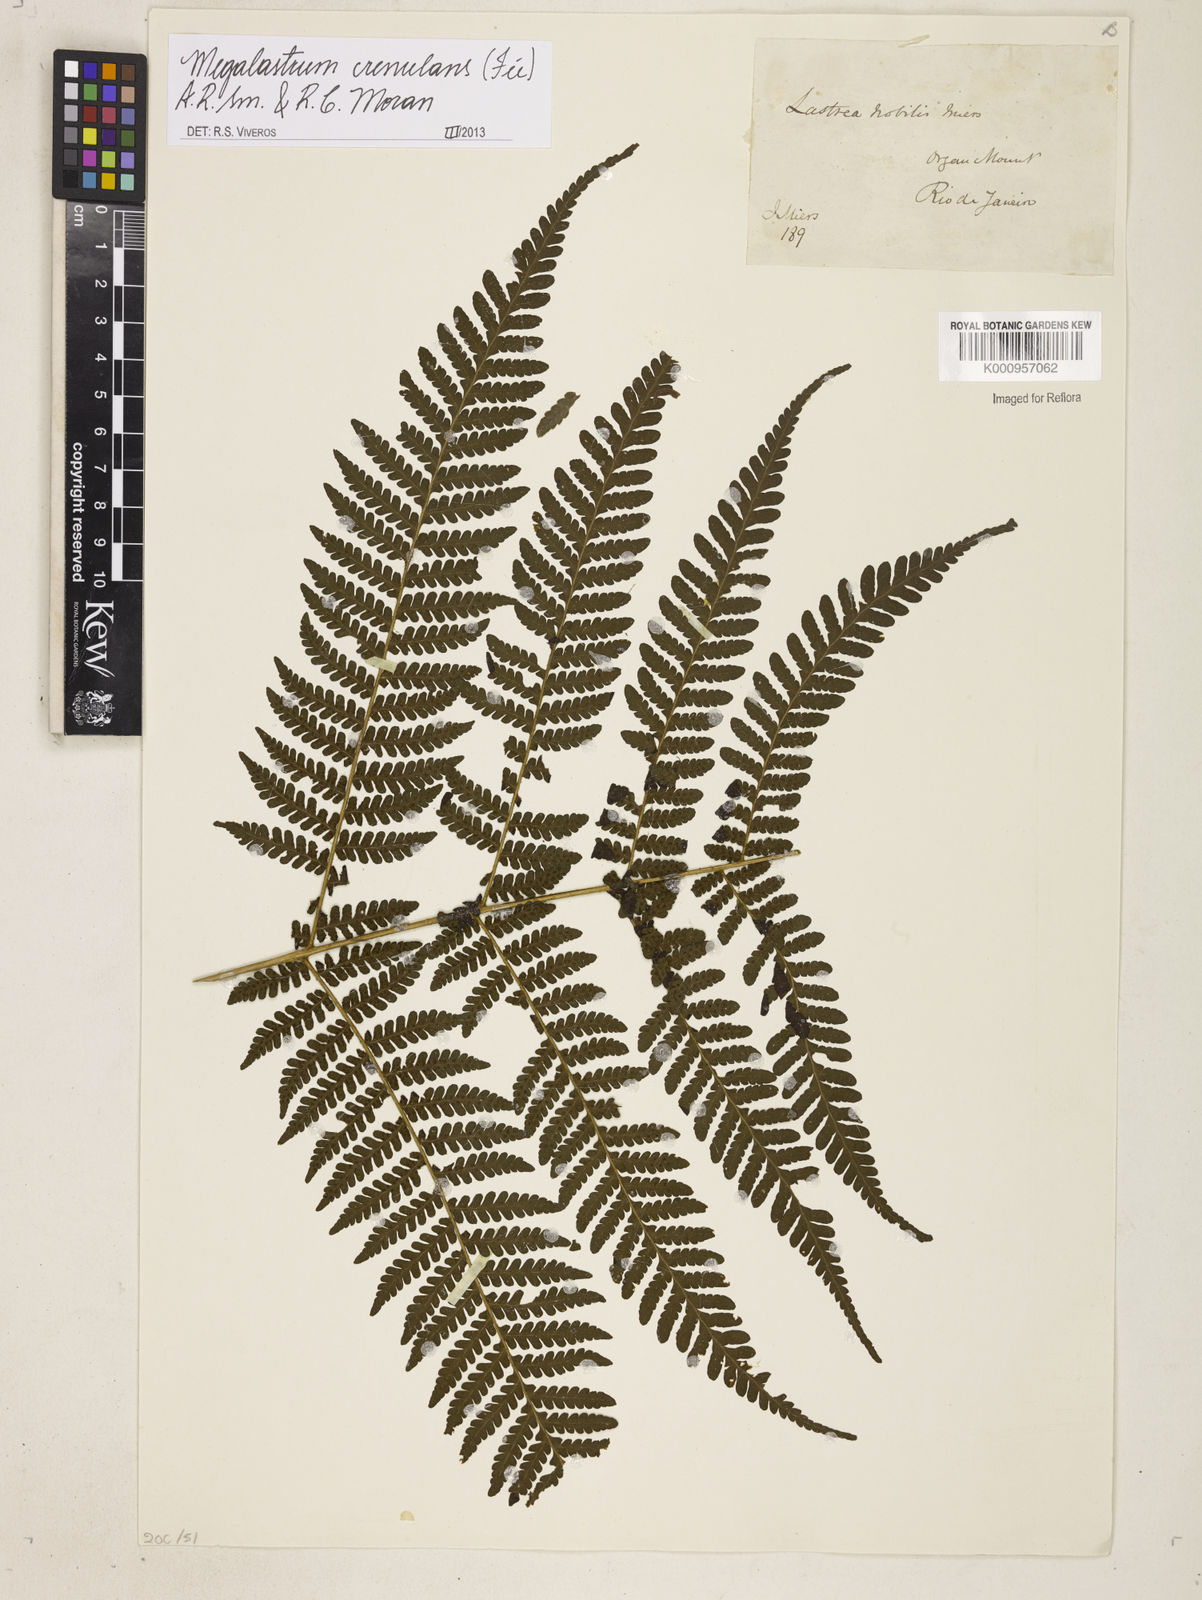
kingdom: Plantae
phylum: Tracheophyta
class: Polypodiopsida
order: Polypodiales
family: Dryopteridaceae
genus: Megalastrum
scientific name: Megalastrum
